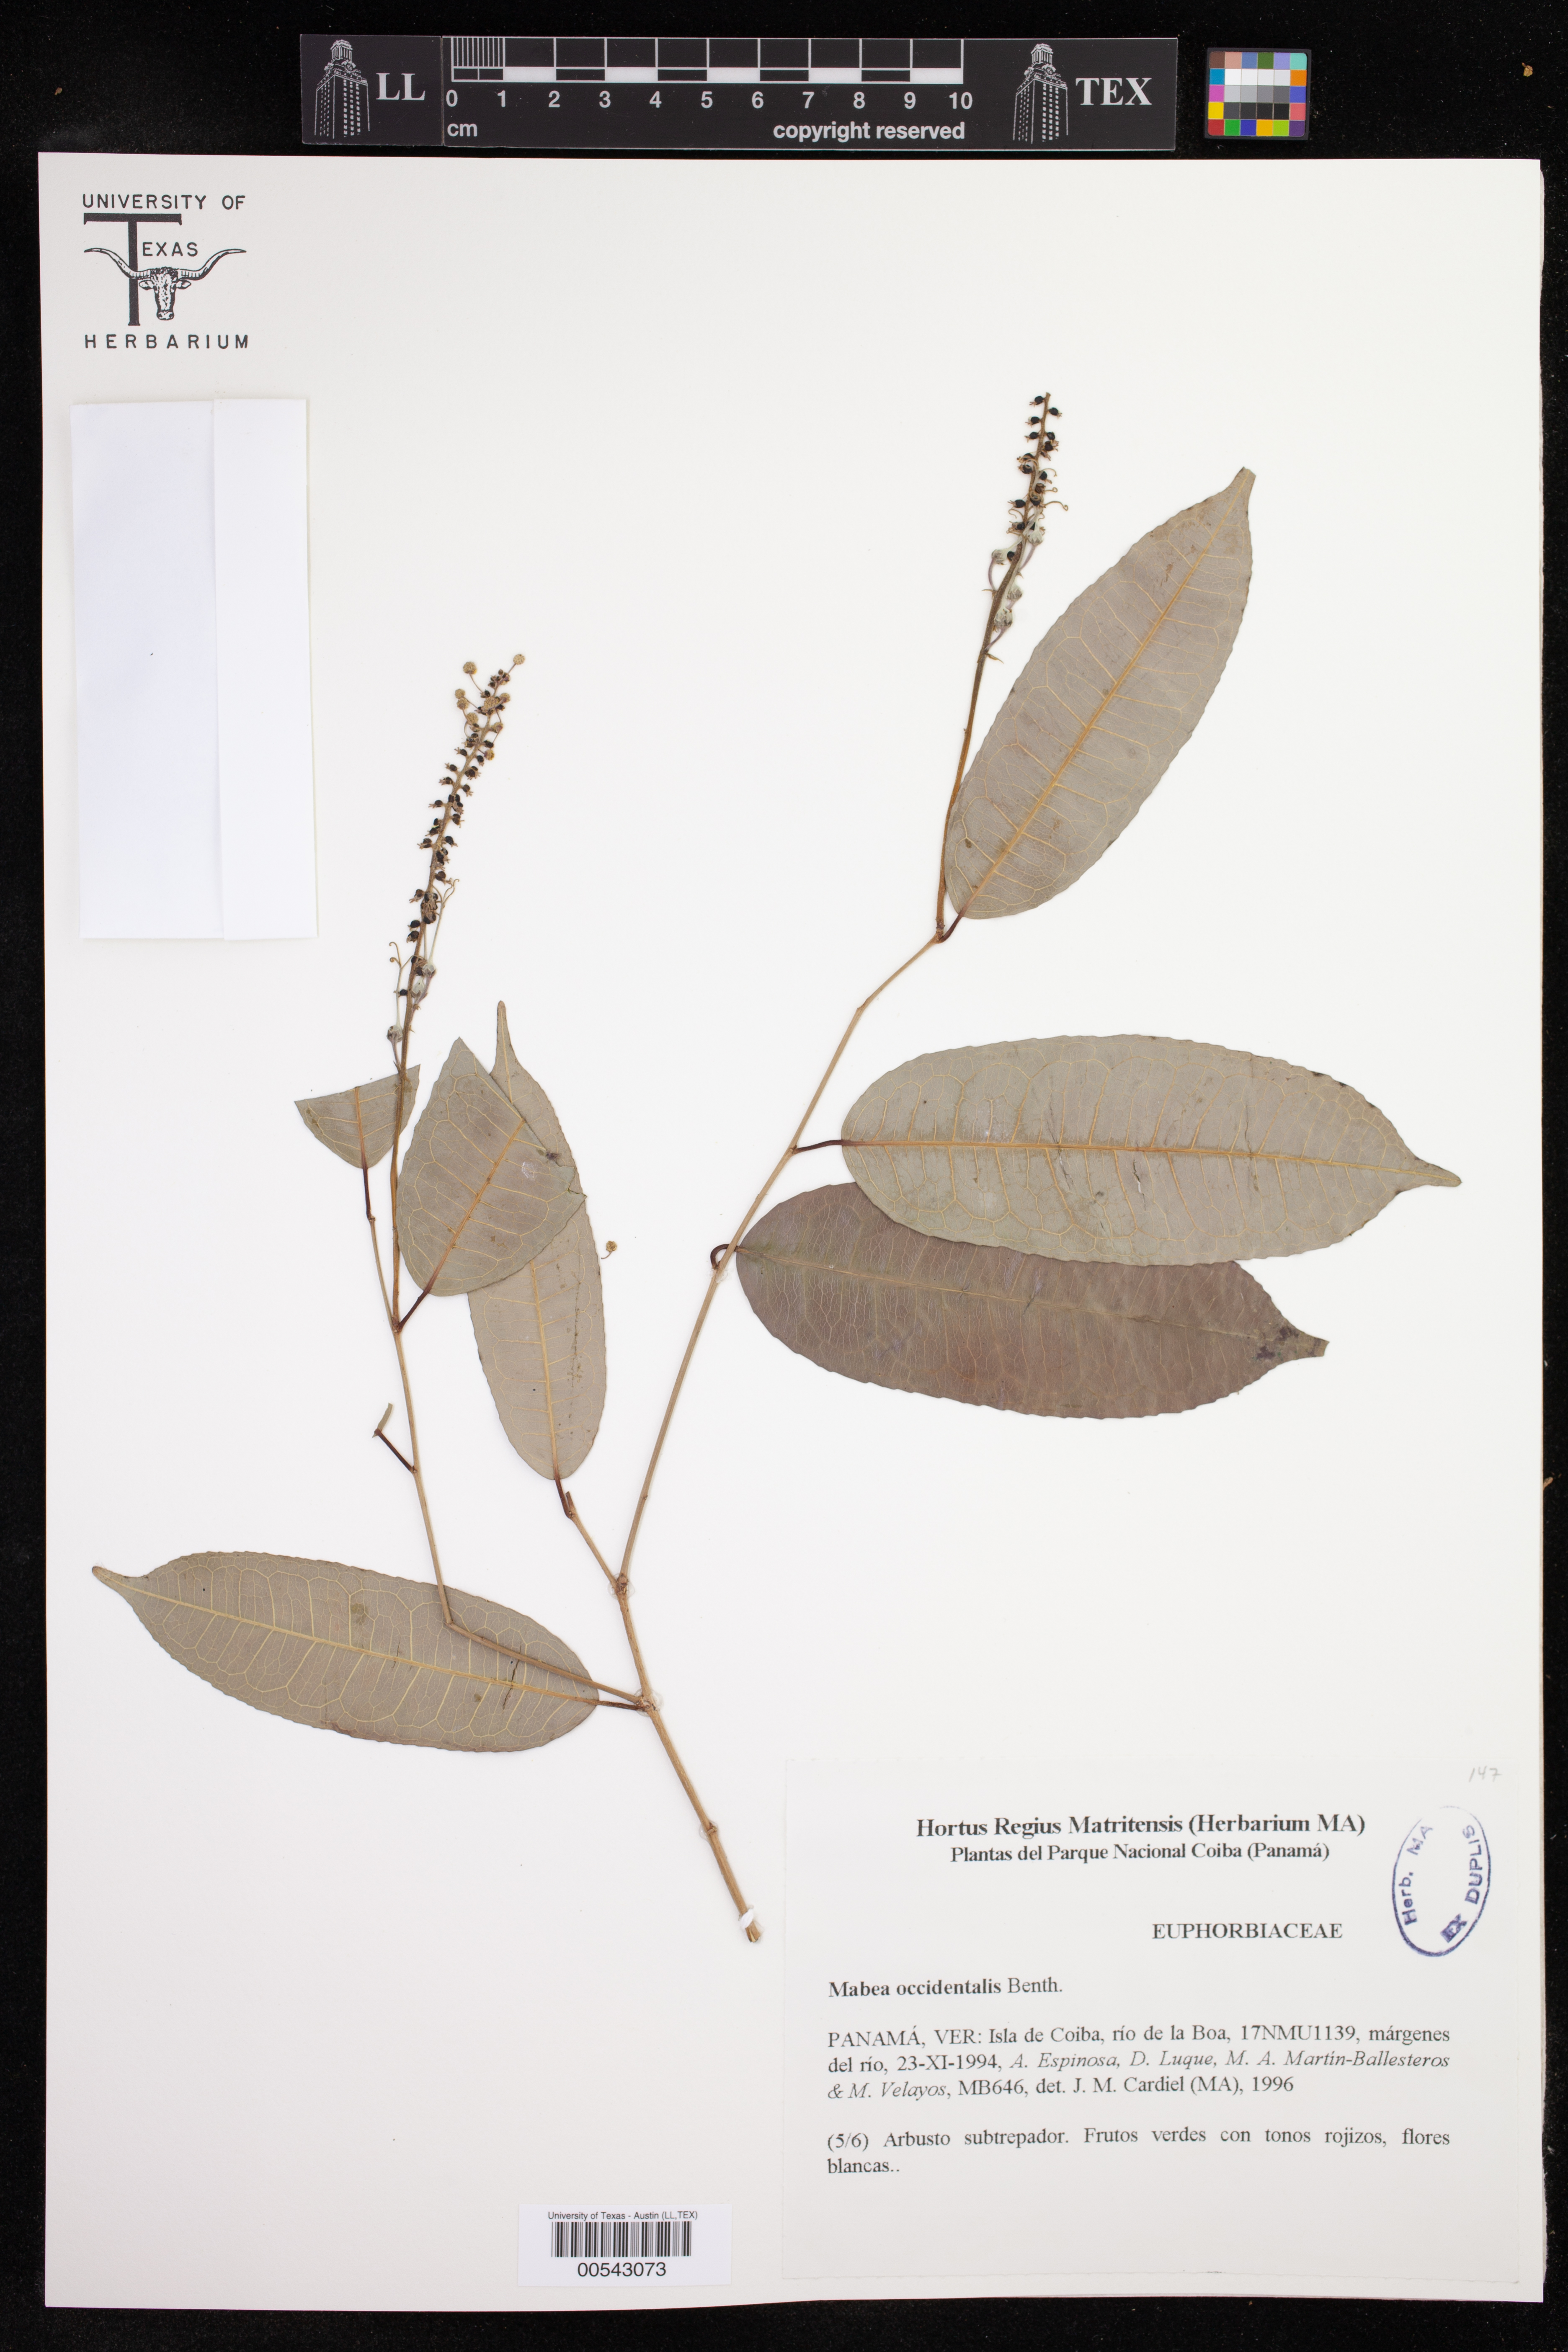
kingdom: Plantae
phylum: Tracheophyta
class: Magnoliopsida
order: Malpighiales
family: Euphorbiaceae
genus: Mabea
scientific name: Mabea occidentalis
